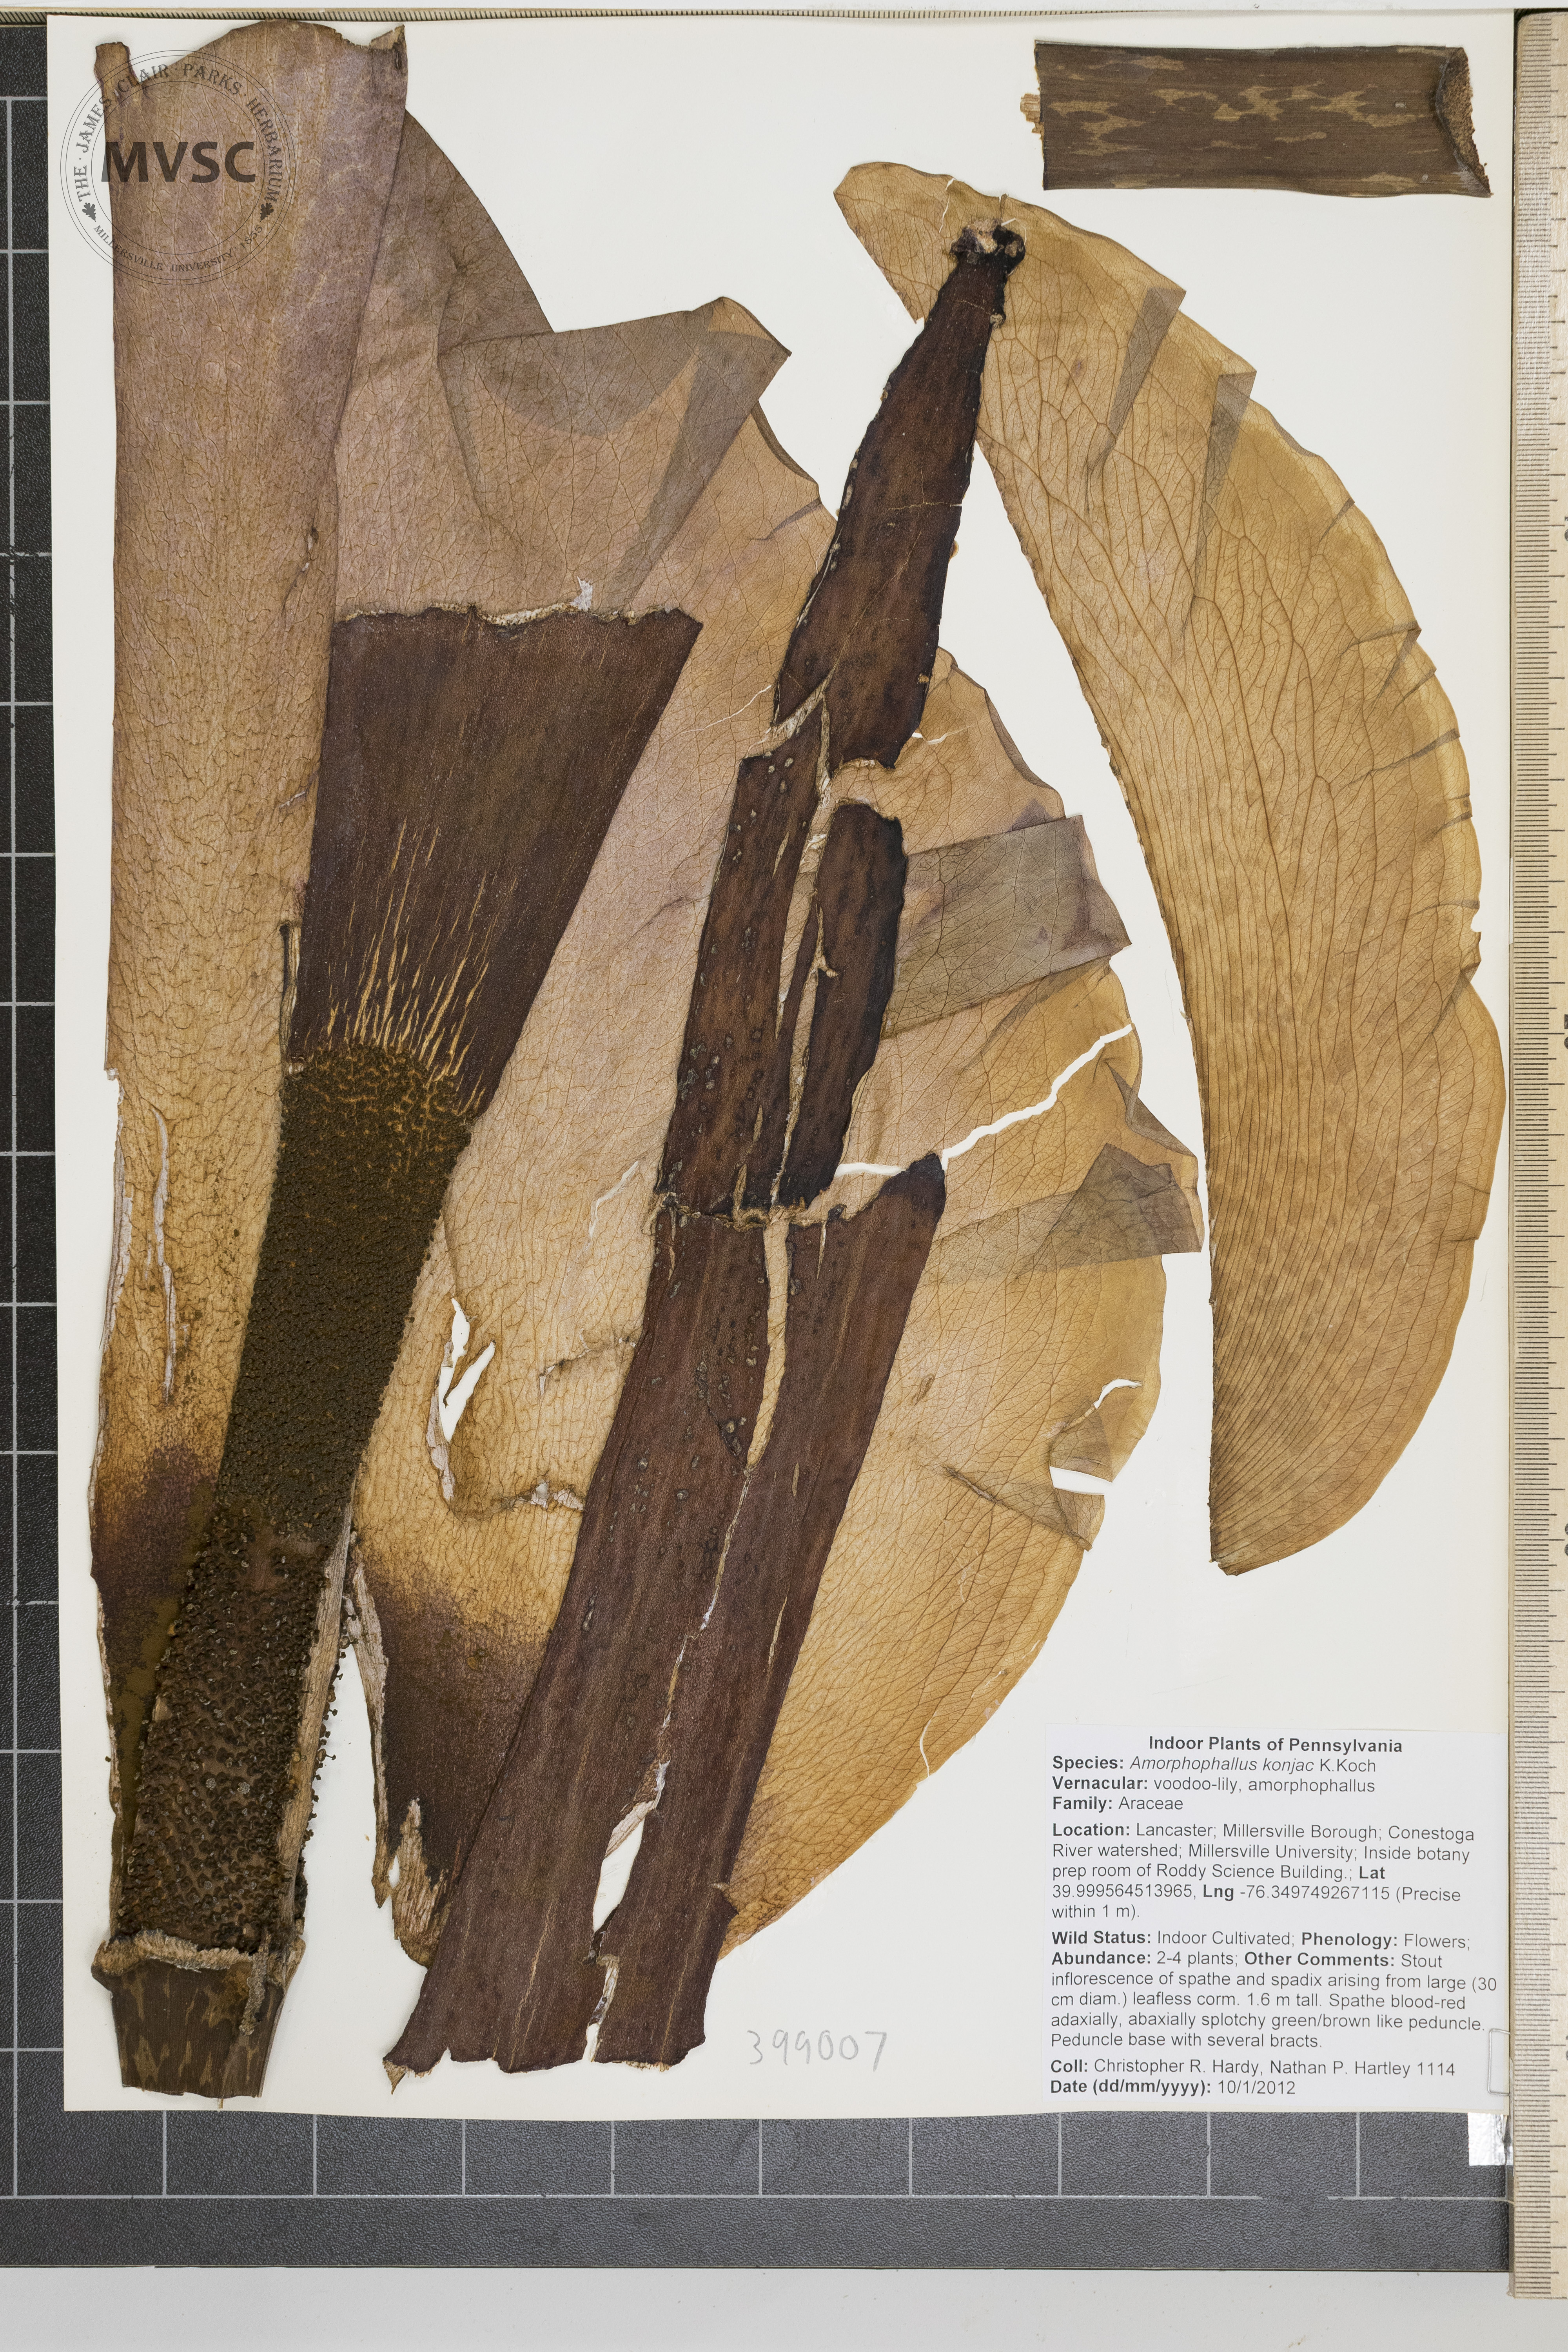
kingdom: Plantae
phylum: Tracheophyta
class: Liliopsida
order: Alismatales
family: Araceae
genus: Amorphophallus
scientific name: Amorphophallus konjac
